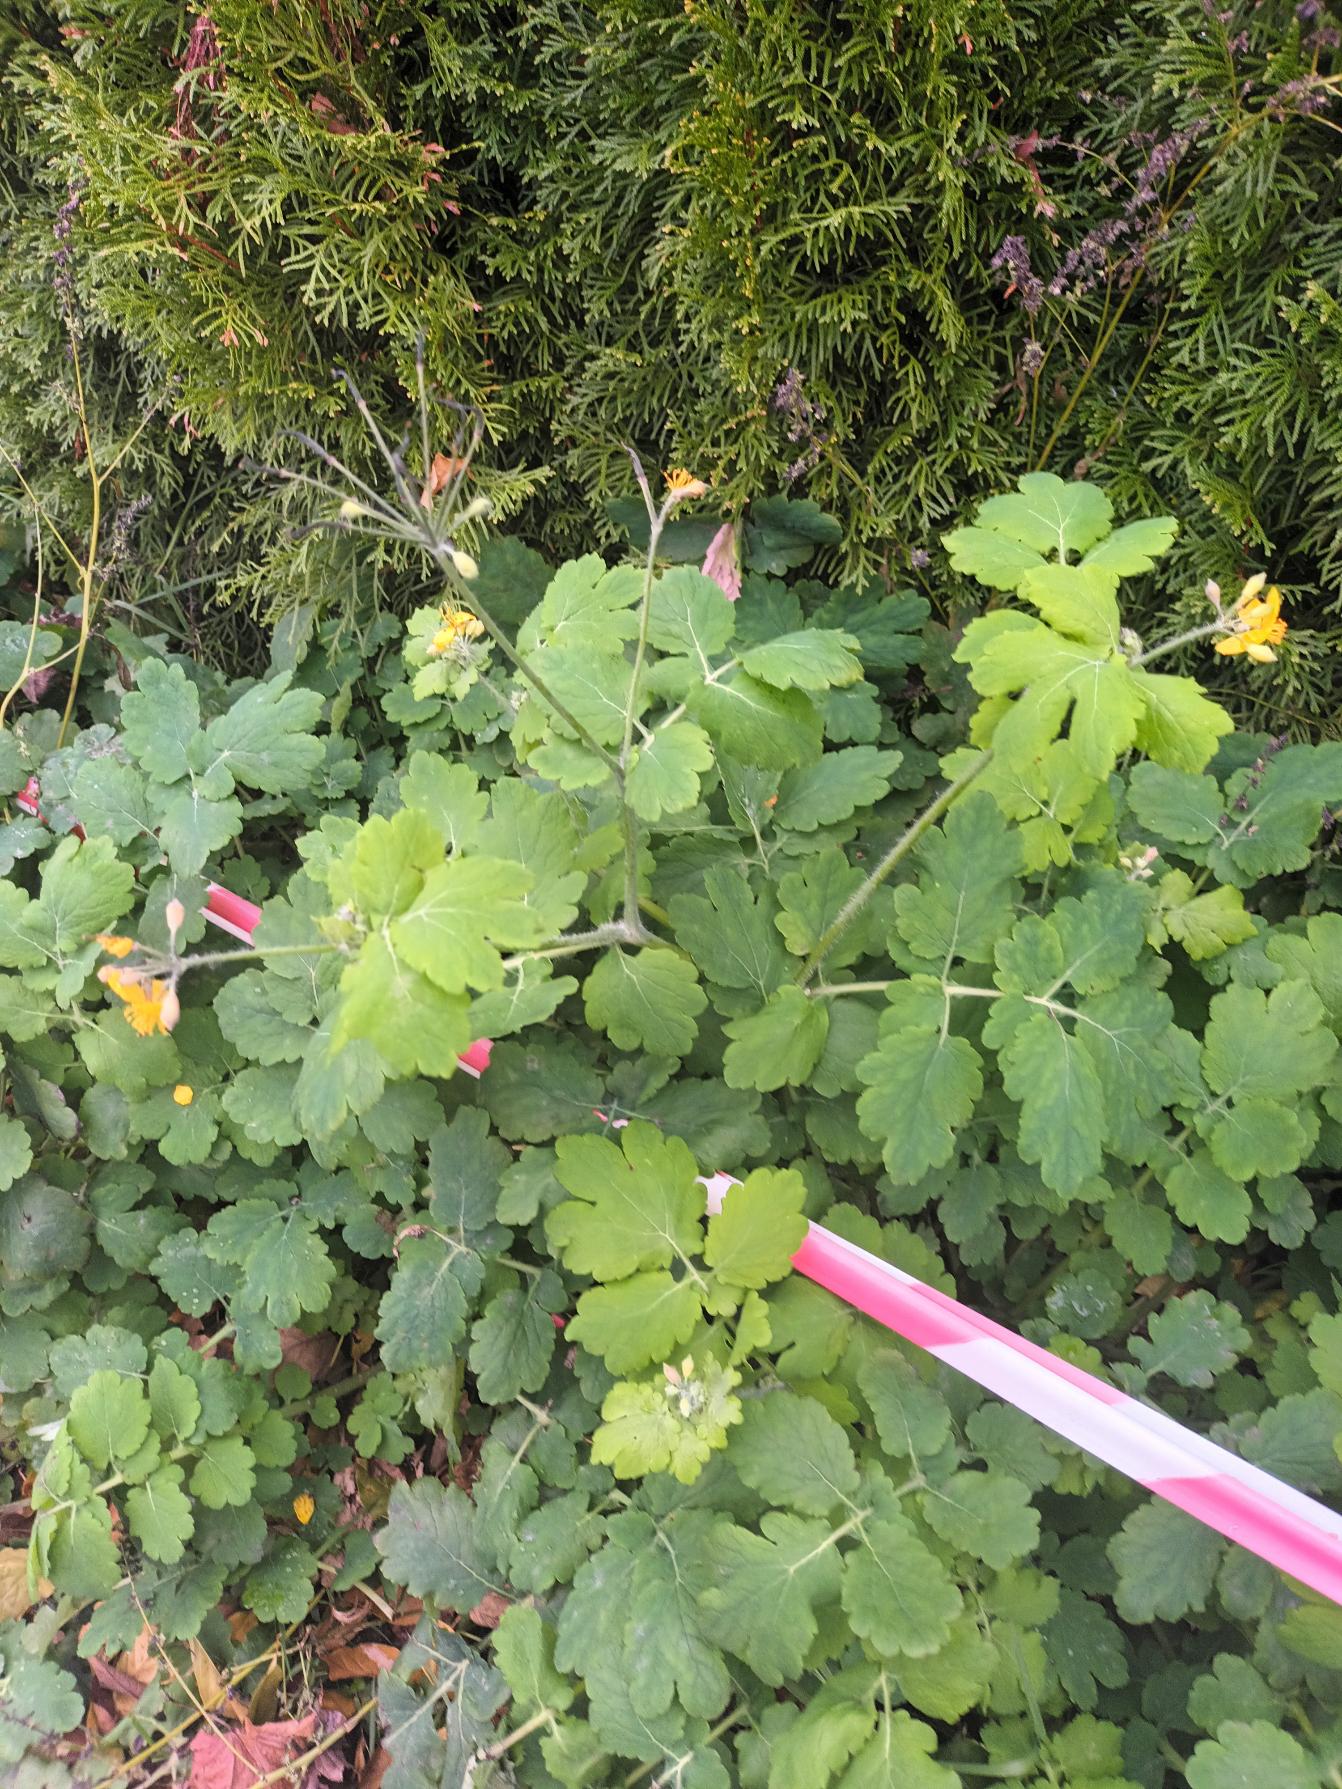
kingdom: Plantae
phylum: Tracheophyta
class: Magnoliopsida
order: Ranunculales
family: Papaveraceae
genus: Chelidonium
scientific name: Chelidonium majus
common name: Svaleurt
